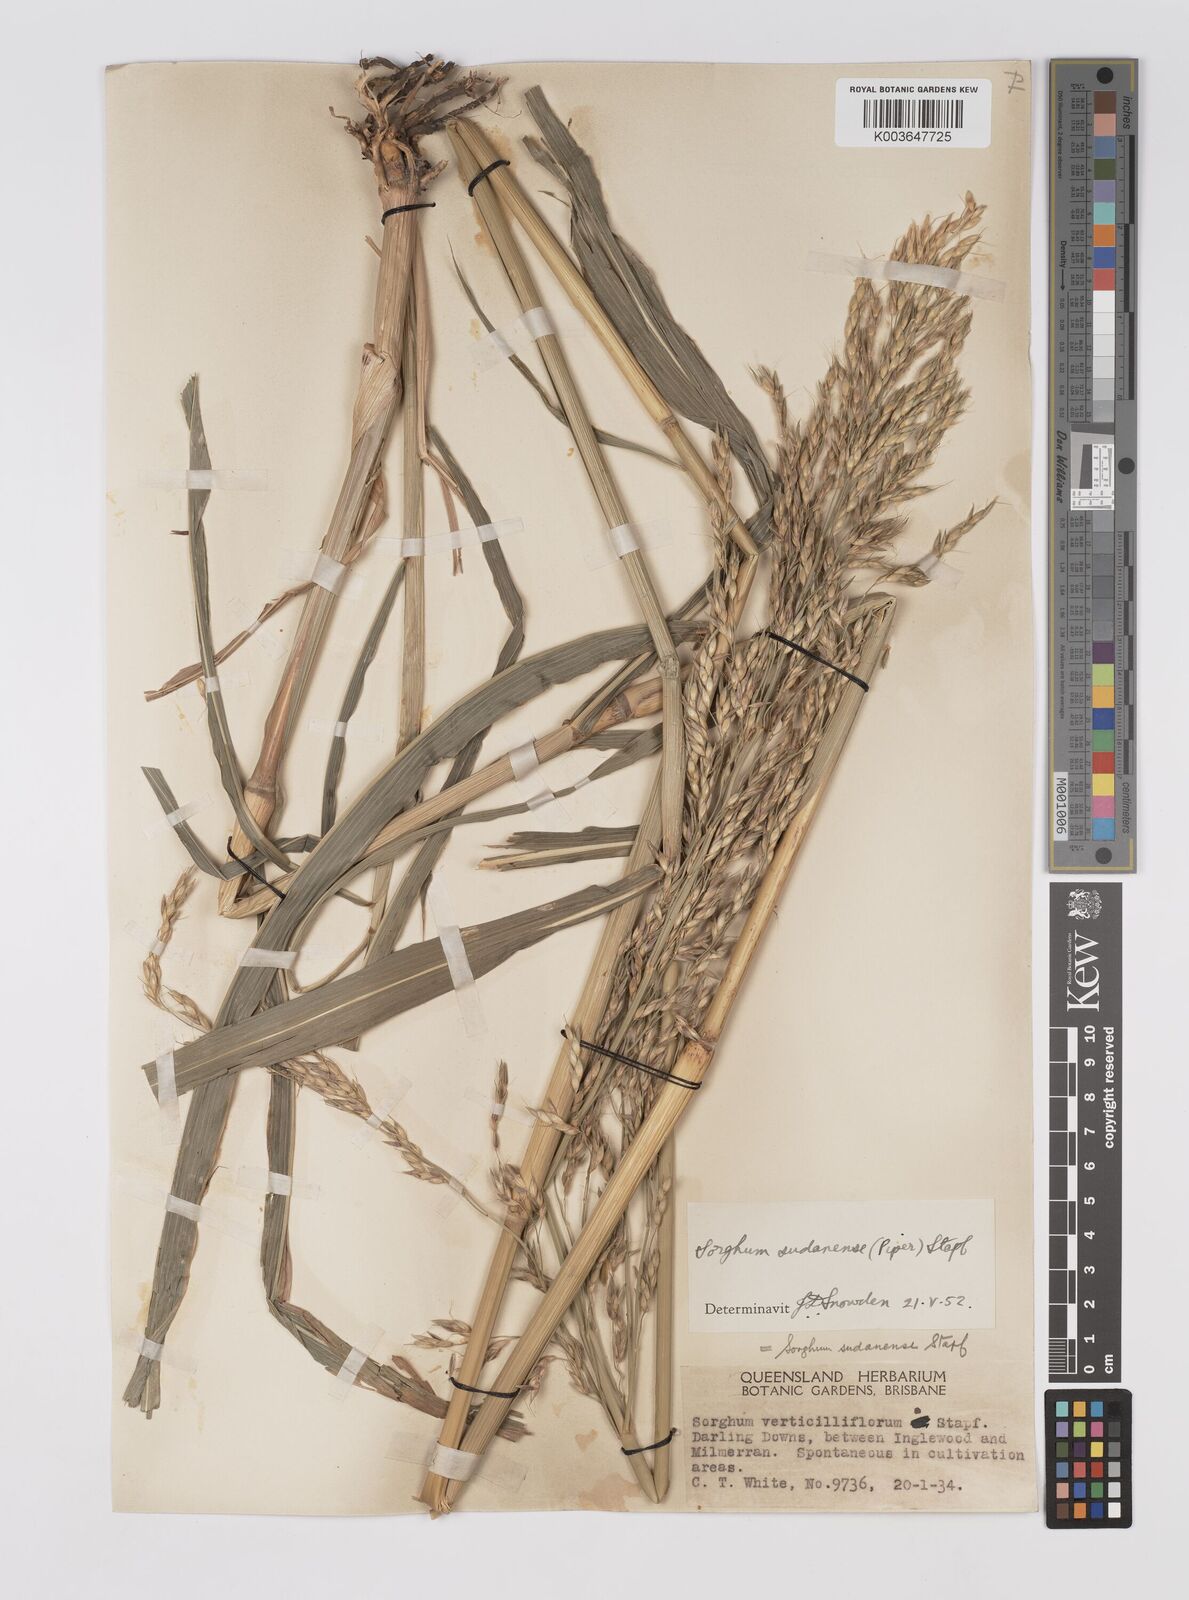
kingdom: Plantae
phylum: Tracheophyta
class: Liliopsida
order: Poales
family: Poaceae
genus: Sorghum
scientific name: Sorghum drummondii
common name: Sudangrass
